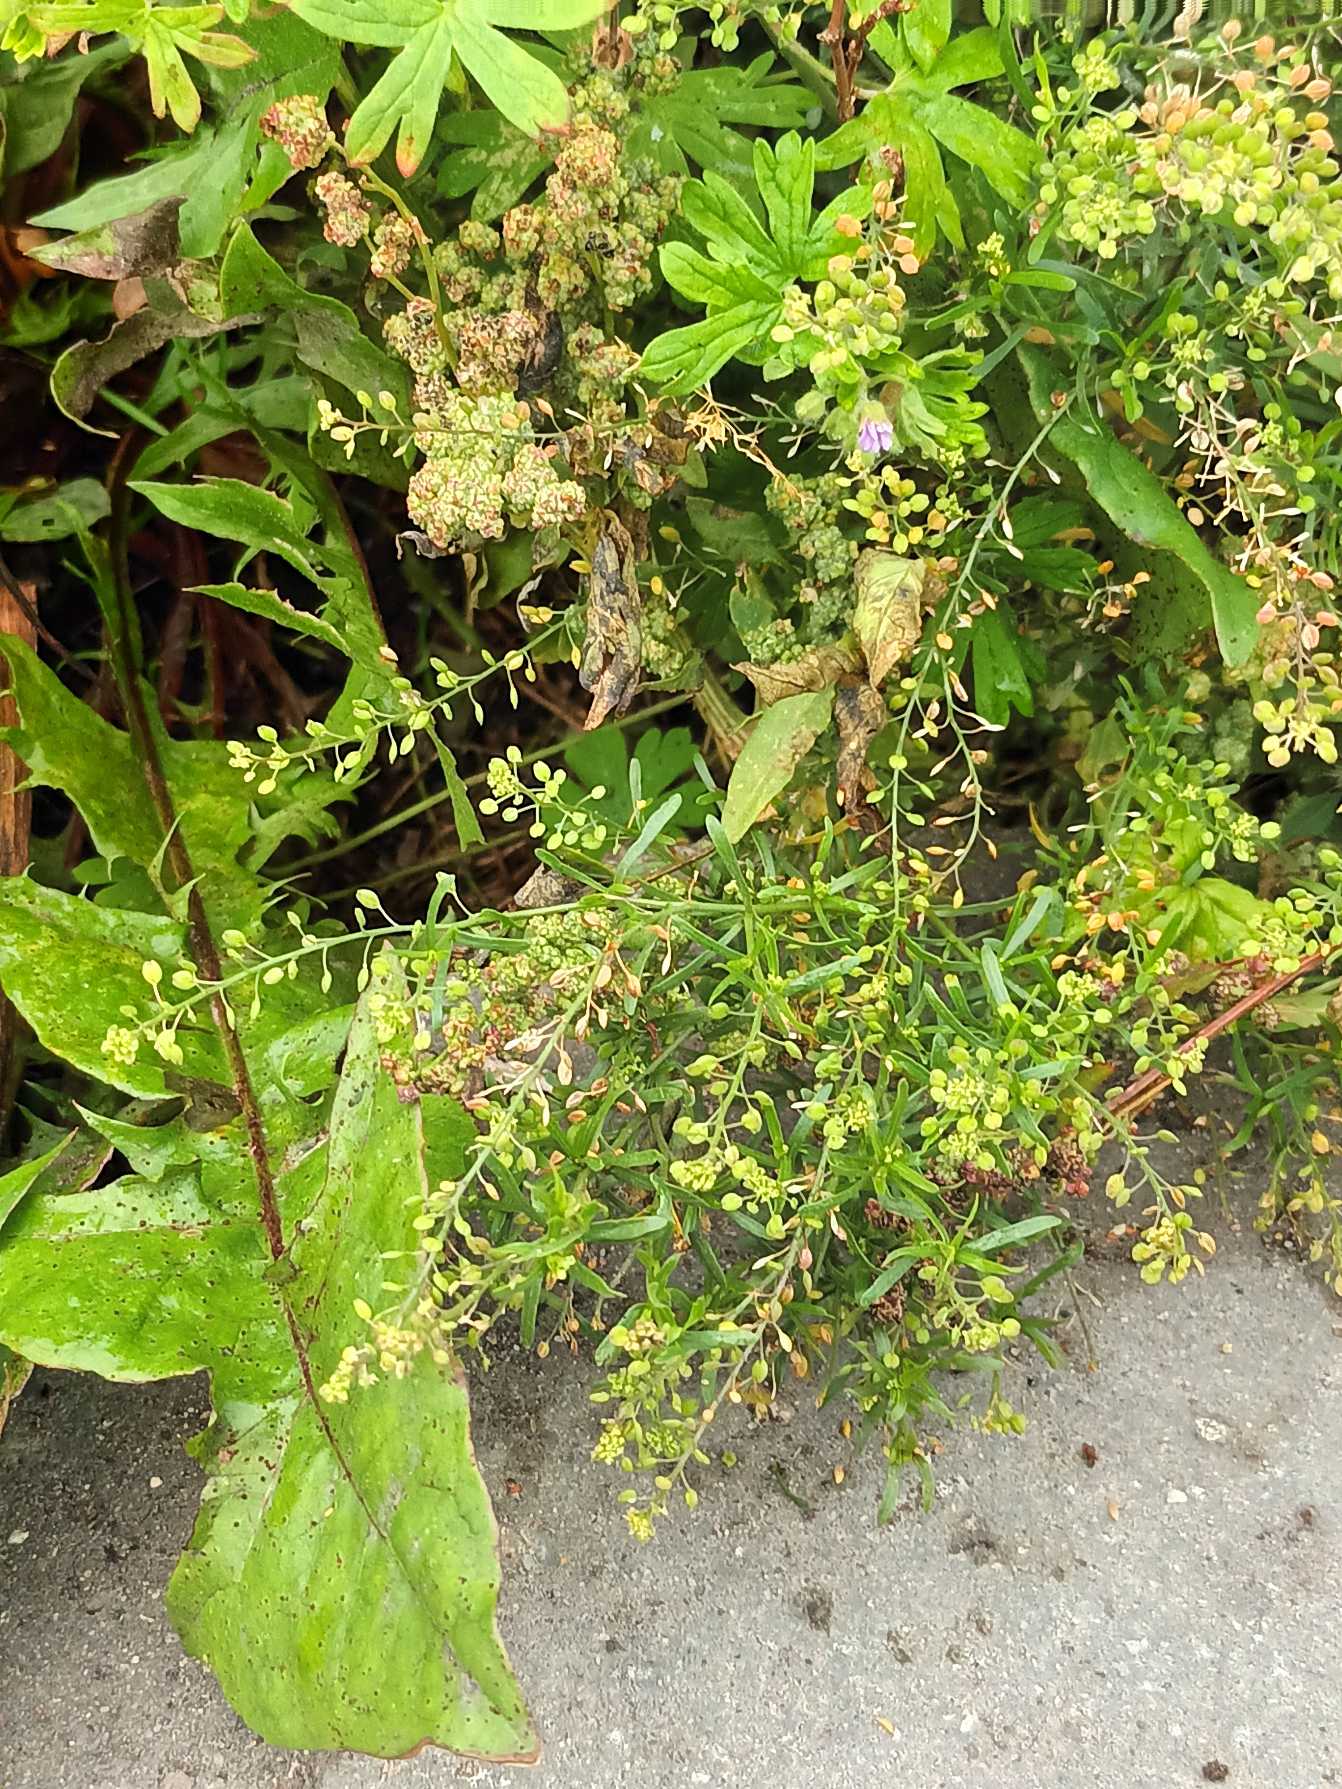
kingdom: Plantae
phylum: Tracheophyta
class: Magnoliopsida
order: Brassicales
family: Brassicaceae
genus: Lepidium
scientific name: Lepidium ruderale
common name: Stinkende karse
